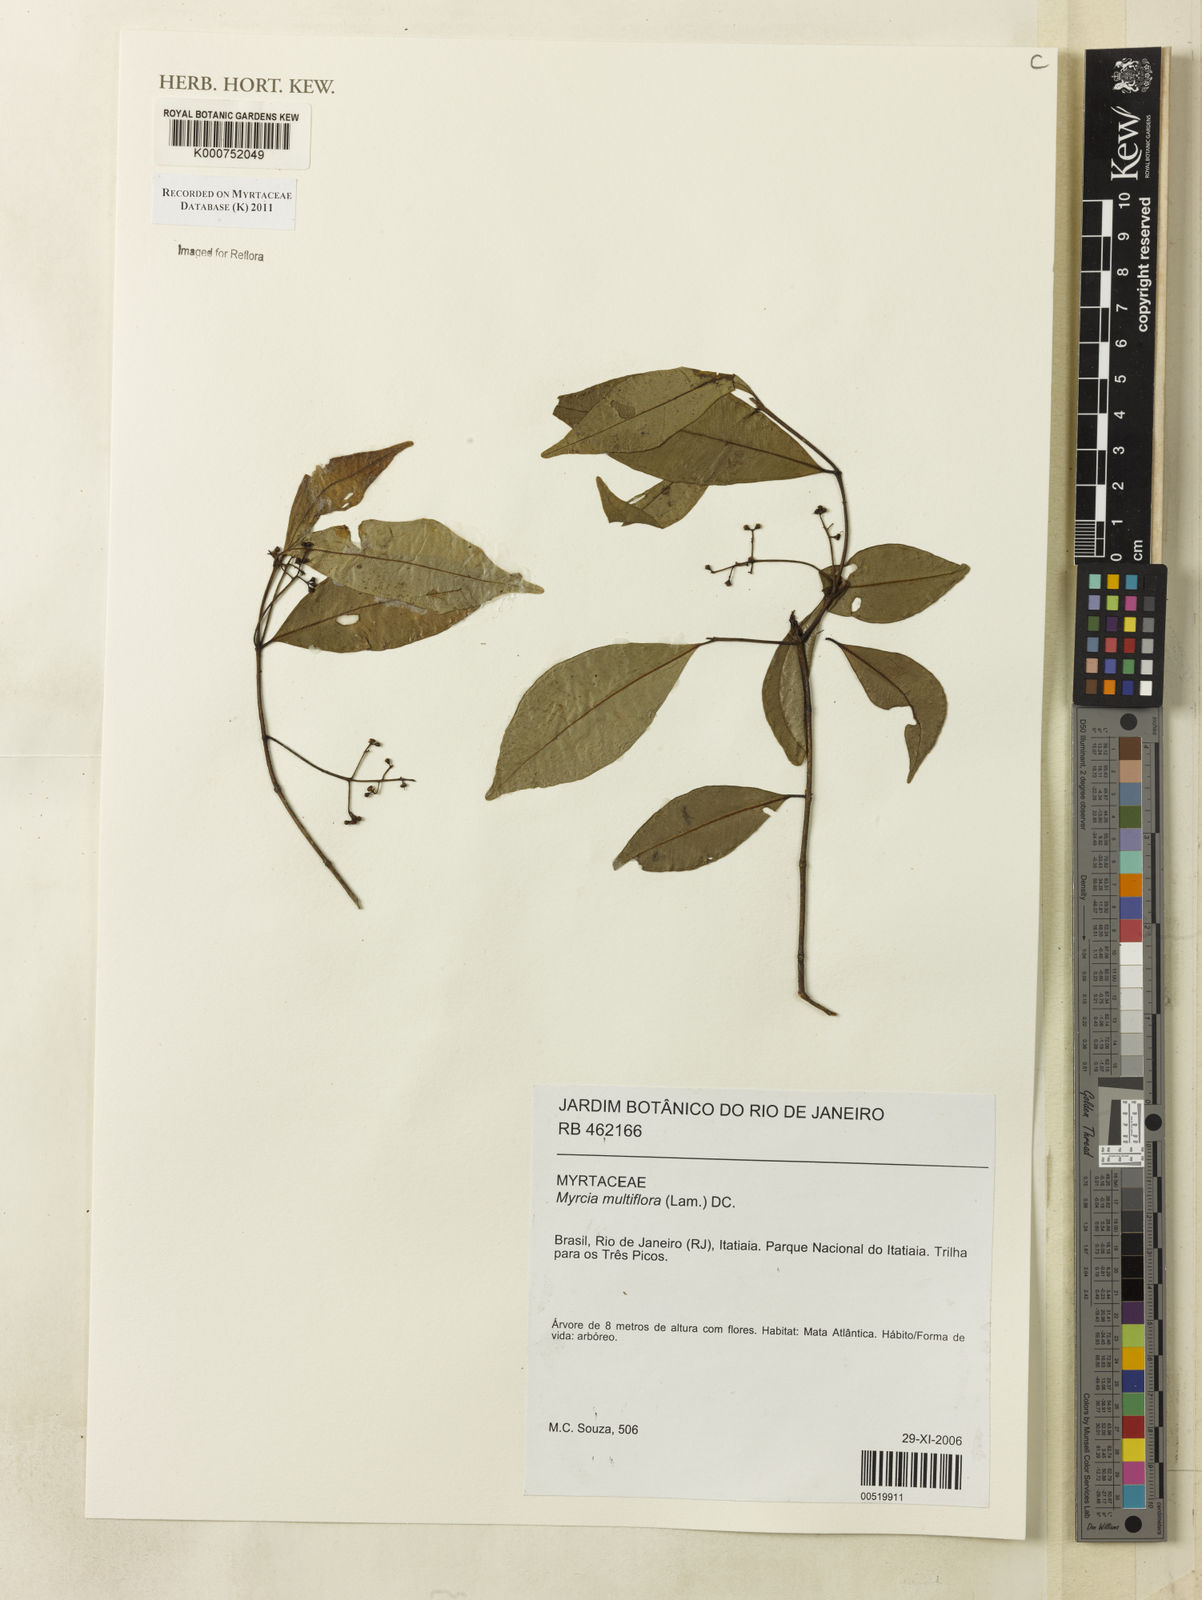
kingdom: Plantae
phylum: Tracheophyta
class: Magnoliopsida
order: Myrtales
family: Myrtaceae
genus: Myrcia
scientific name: Myrcia multiflora
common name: Pedra hume
